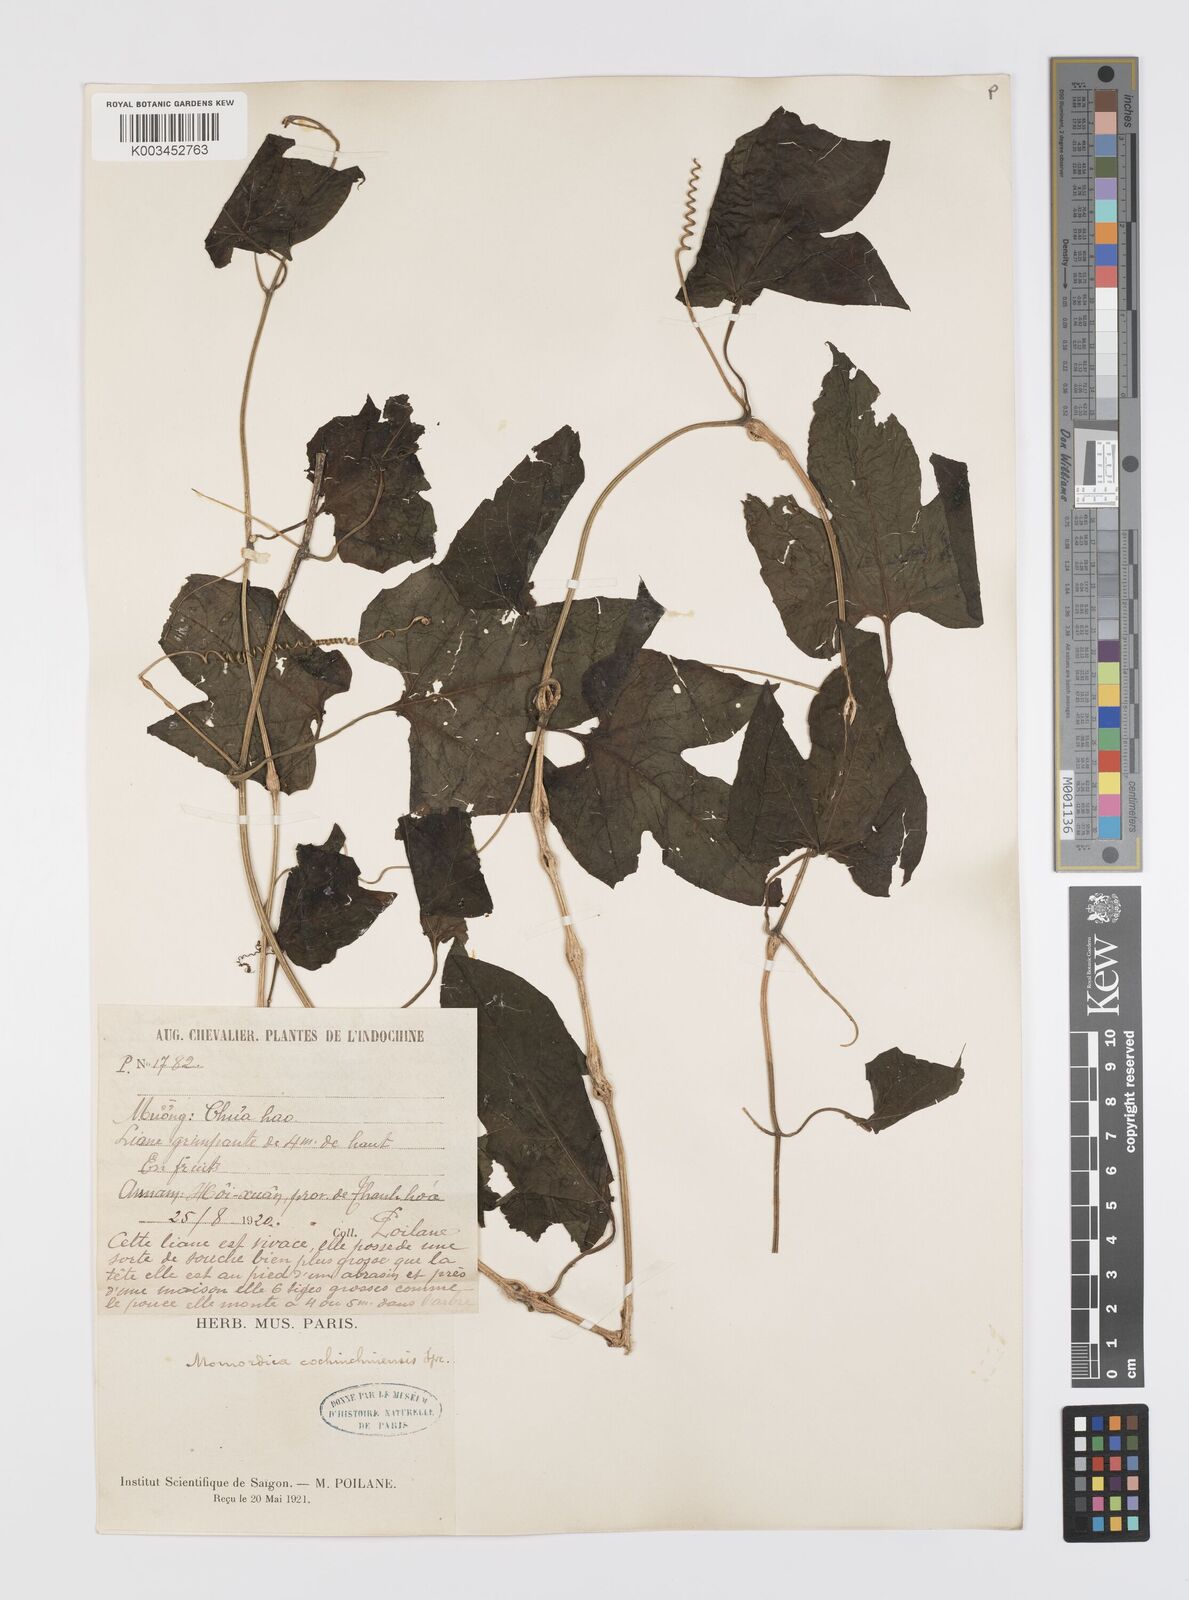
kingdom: Plantae
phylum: Tracheophyta
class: Magnoliopsida
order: Cucurbitales
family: Cucurbitaceae
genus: Momordica
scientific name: Momordica cochinchinensis
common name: Chinese bitter-cucumber
